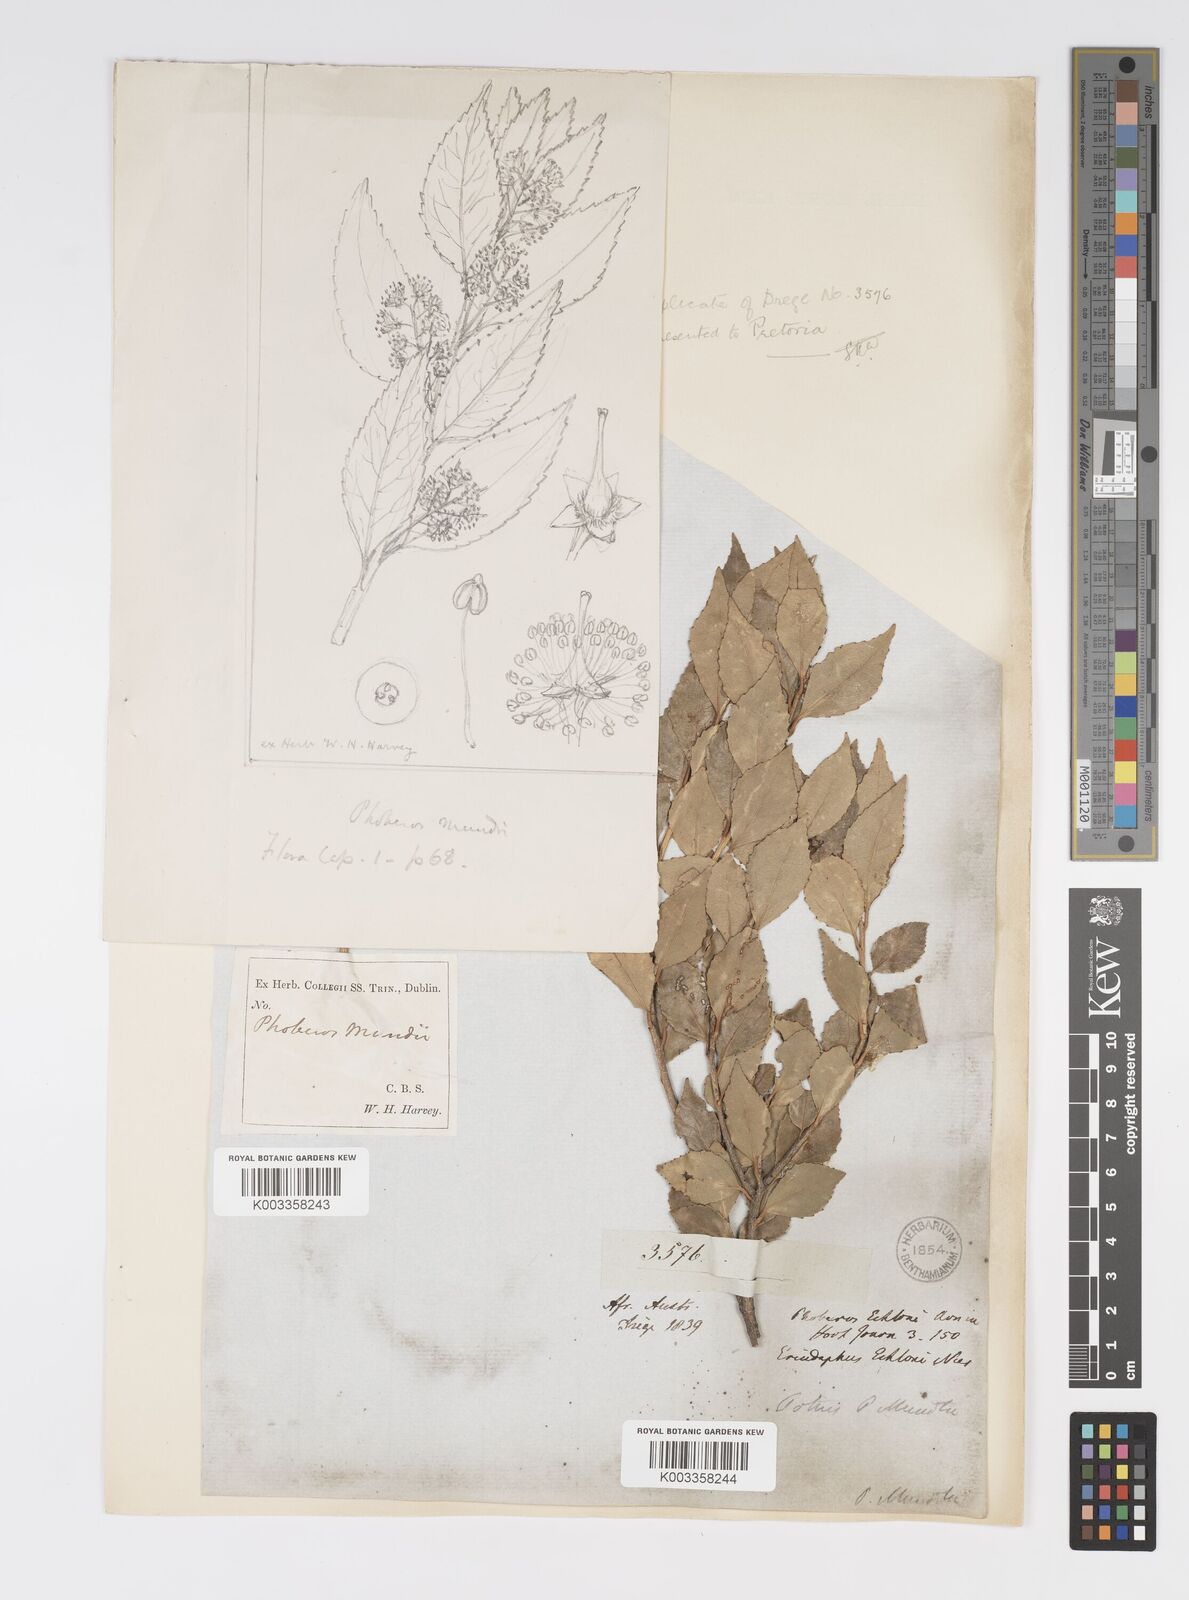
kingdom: Plantae
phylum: Tracheophyta
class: Magnoliopsida
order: Malpighiales
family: Salicaceae
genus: Scolopia
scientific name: Scolopia mundii
